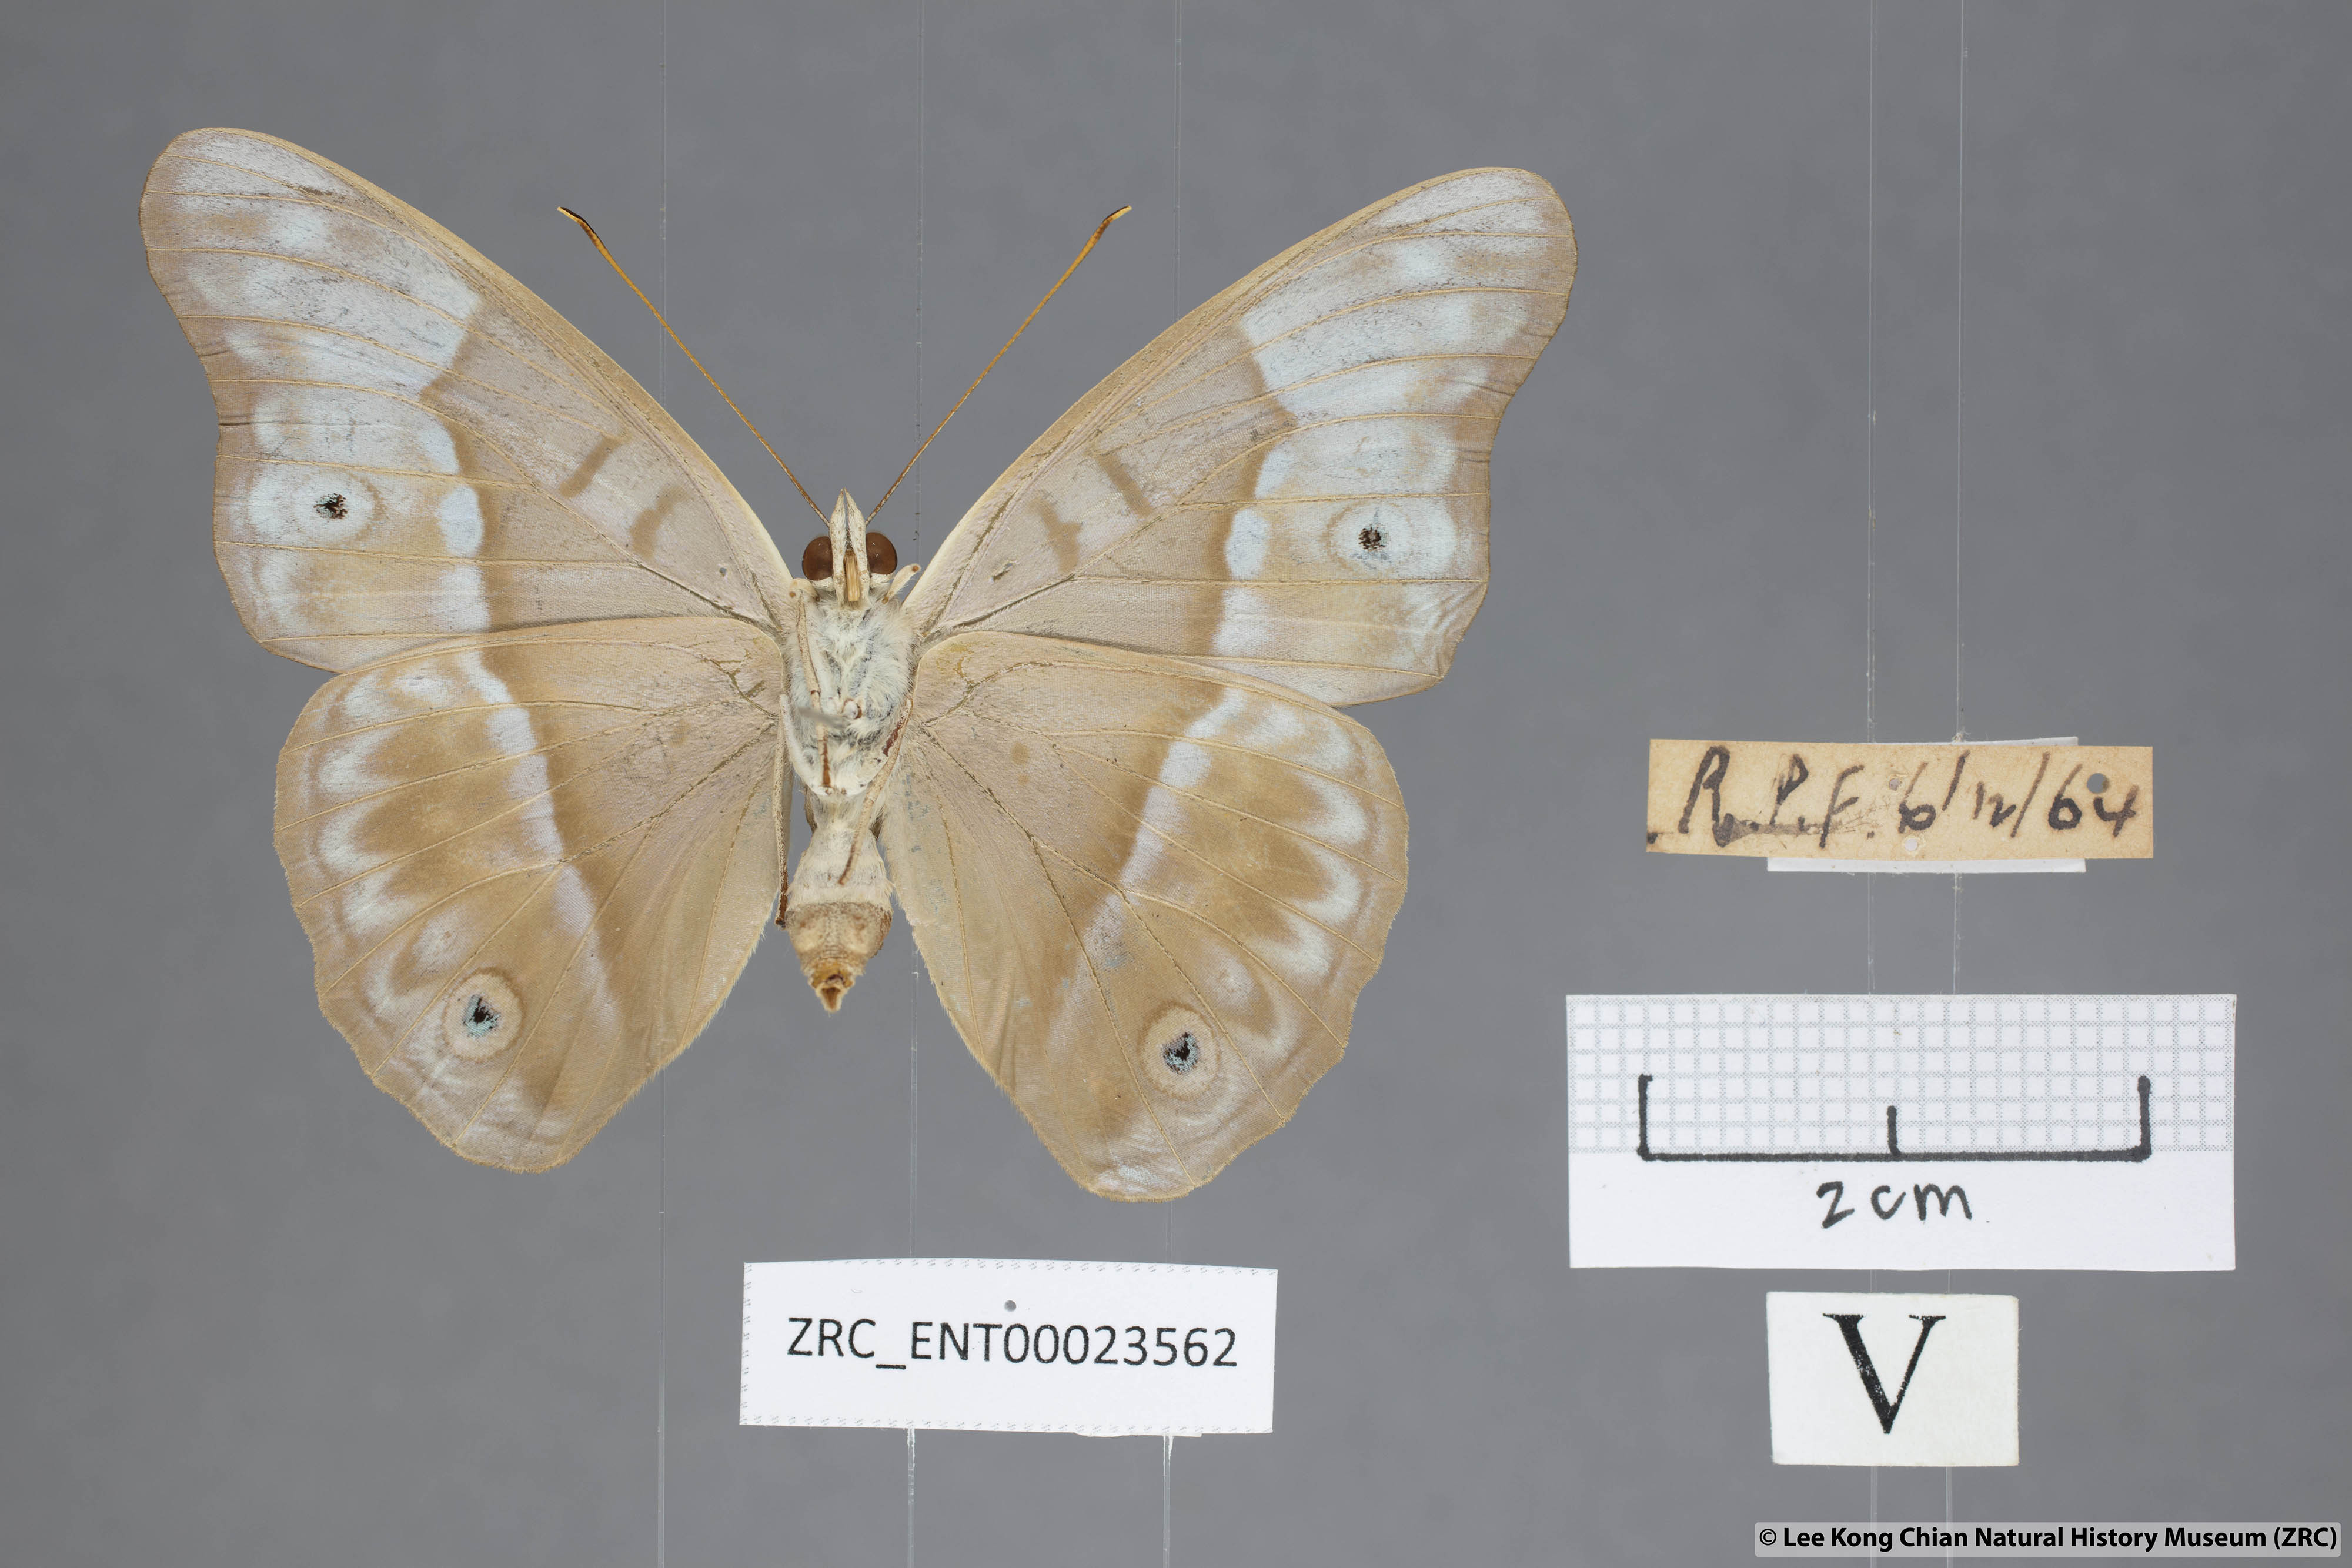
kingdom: Animalia
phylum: Arthropoda
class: Insecta
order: Lepidoptera
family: Nymphalidae
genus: Eulaceura
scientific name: Eulaceura osteria
